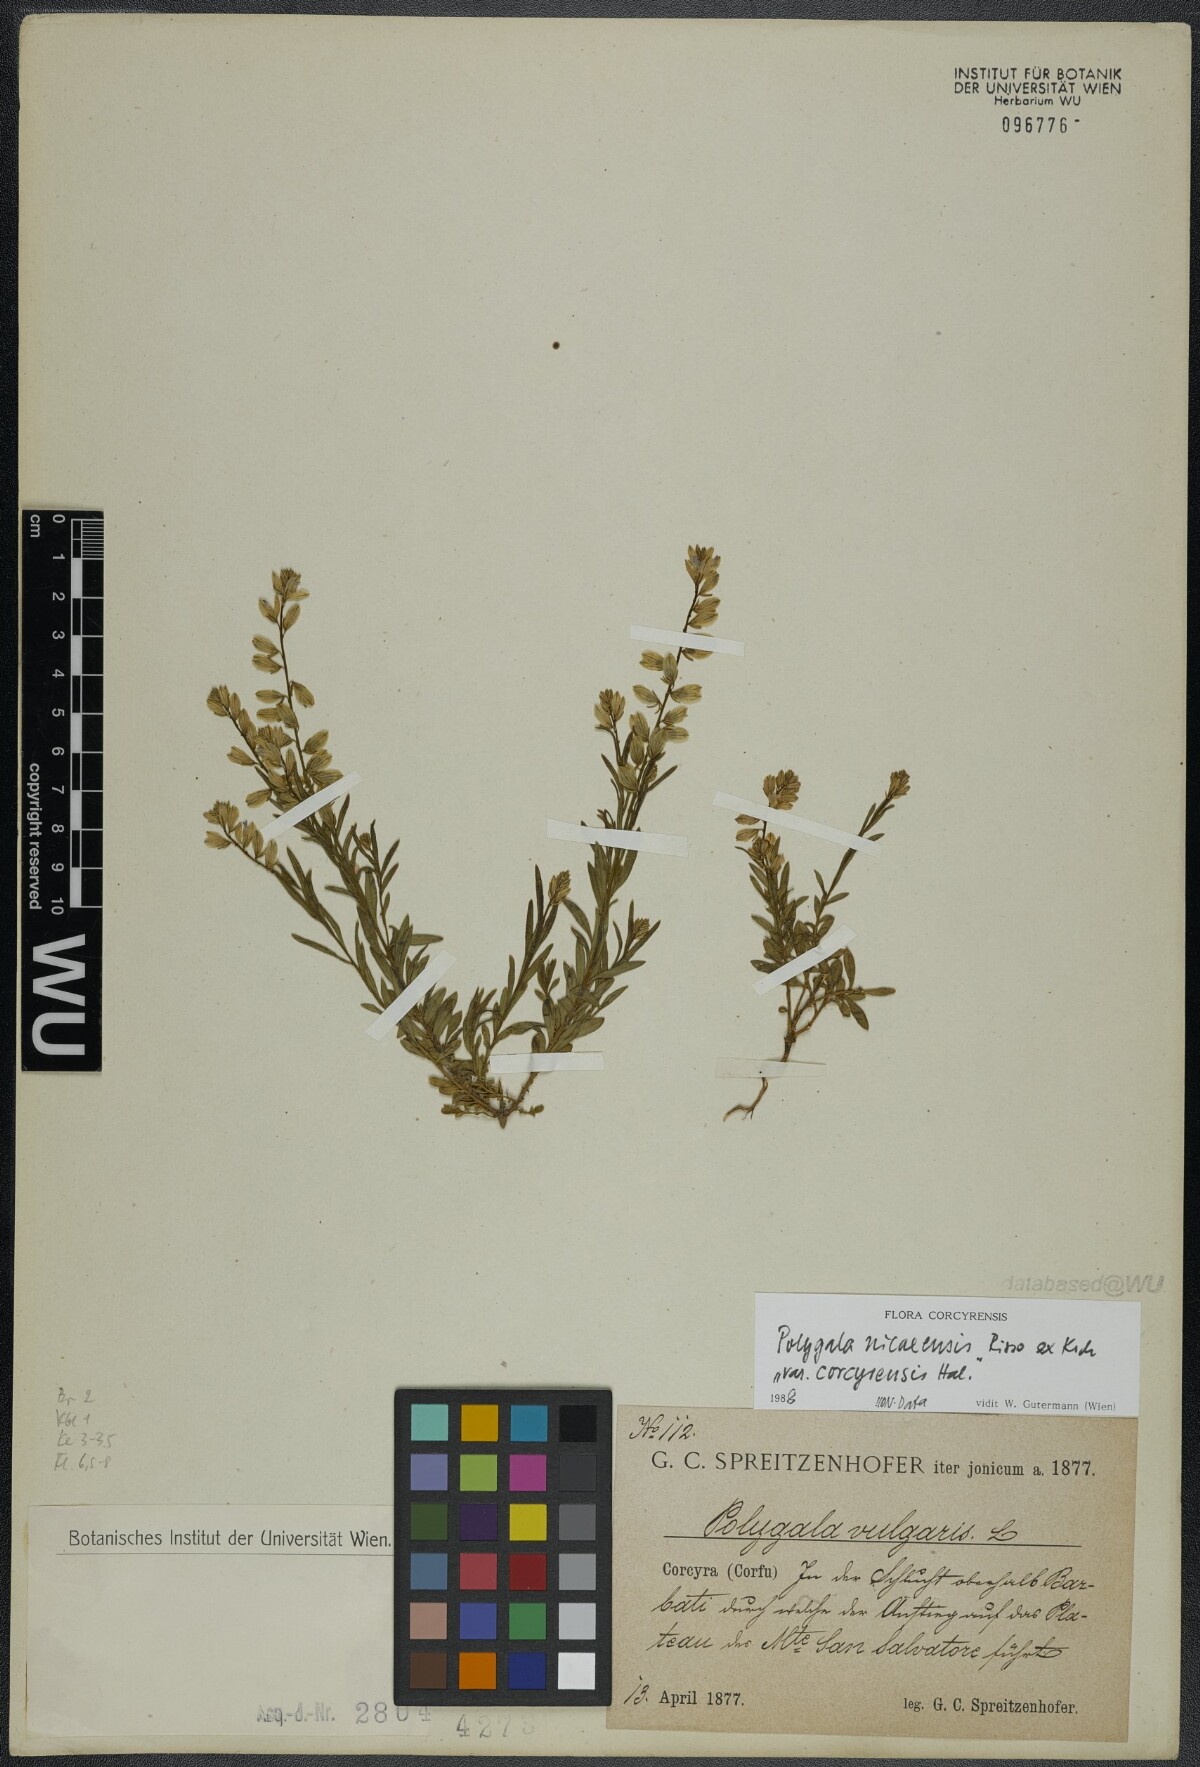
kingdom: Plantae
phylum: Tracheophyta
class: Magnoliopsida
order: Fabales
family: Polygalaceae
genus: Polygala
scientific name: Polygala nicaeensis
